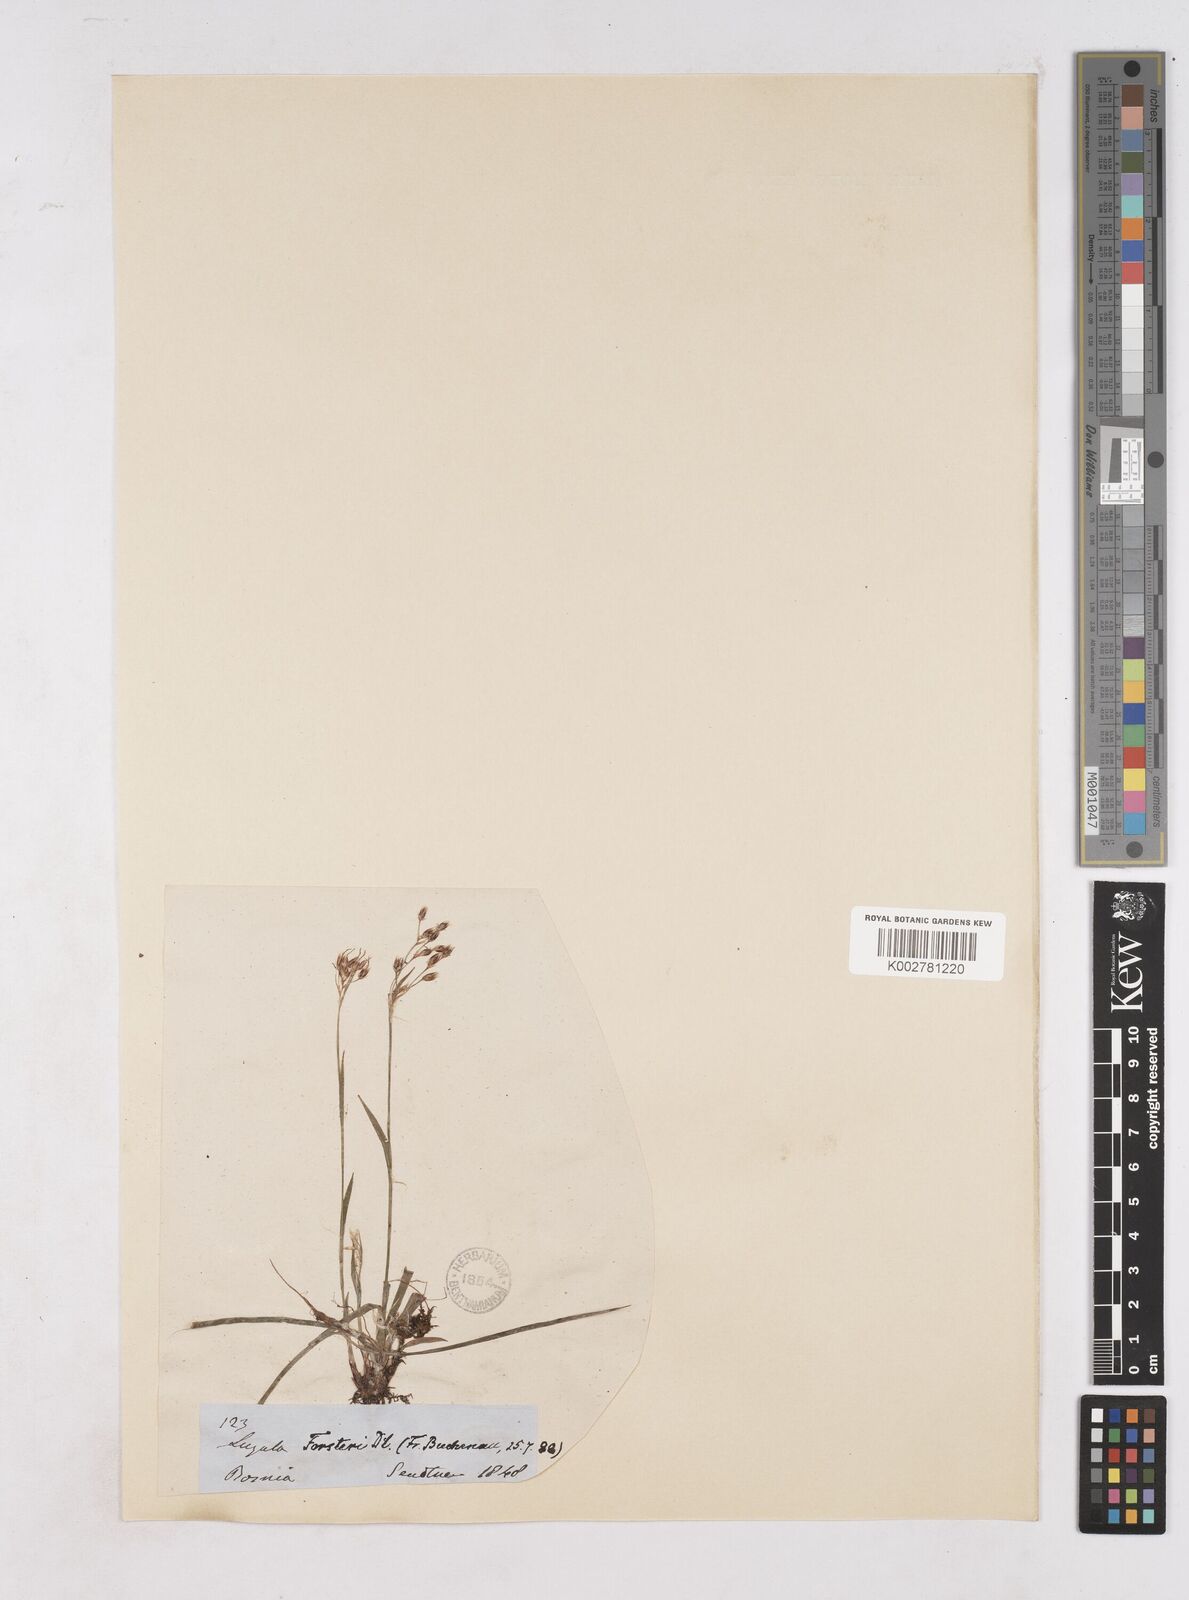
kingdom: Plantae
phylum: Tracheophyta
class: Liliopsida
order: Poales
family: Juncaceae
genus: Luzula
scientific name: Luzula forsteri
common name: Southern wood-rush
